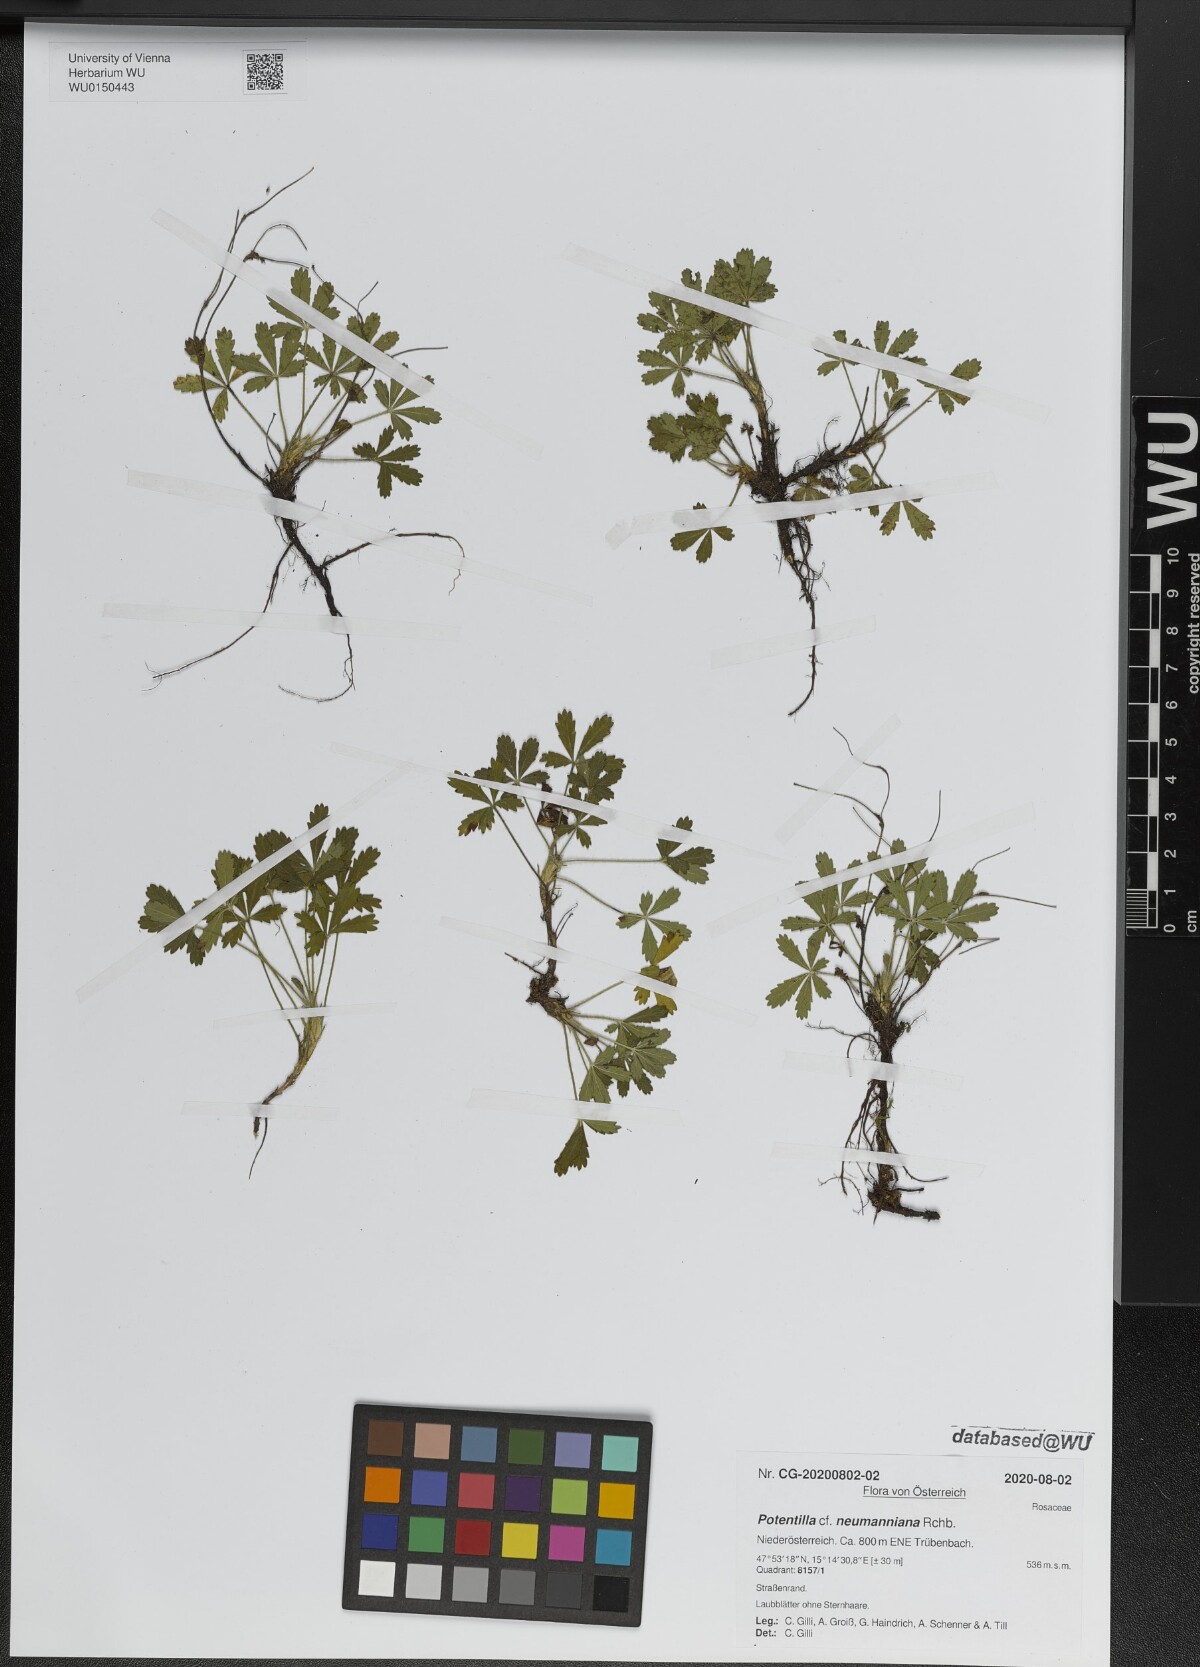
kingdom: Plantae
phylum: Tracheophyta
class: Magnoliopsida
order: Rosales
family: Rosaceae
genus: Potentilla
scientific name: Potentilla verna
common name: Spring cinquefoil
